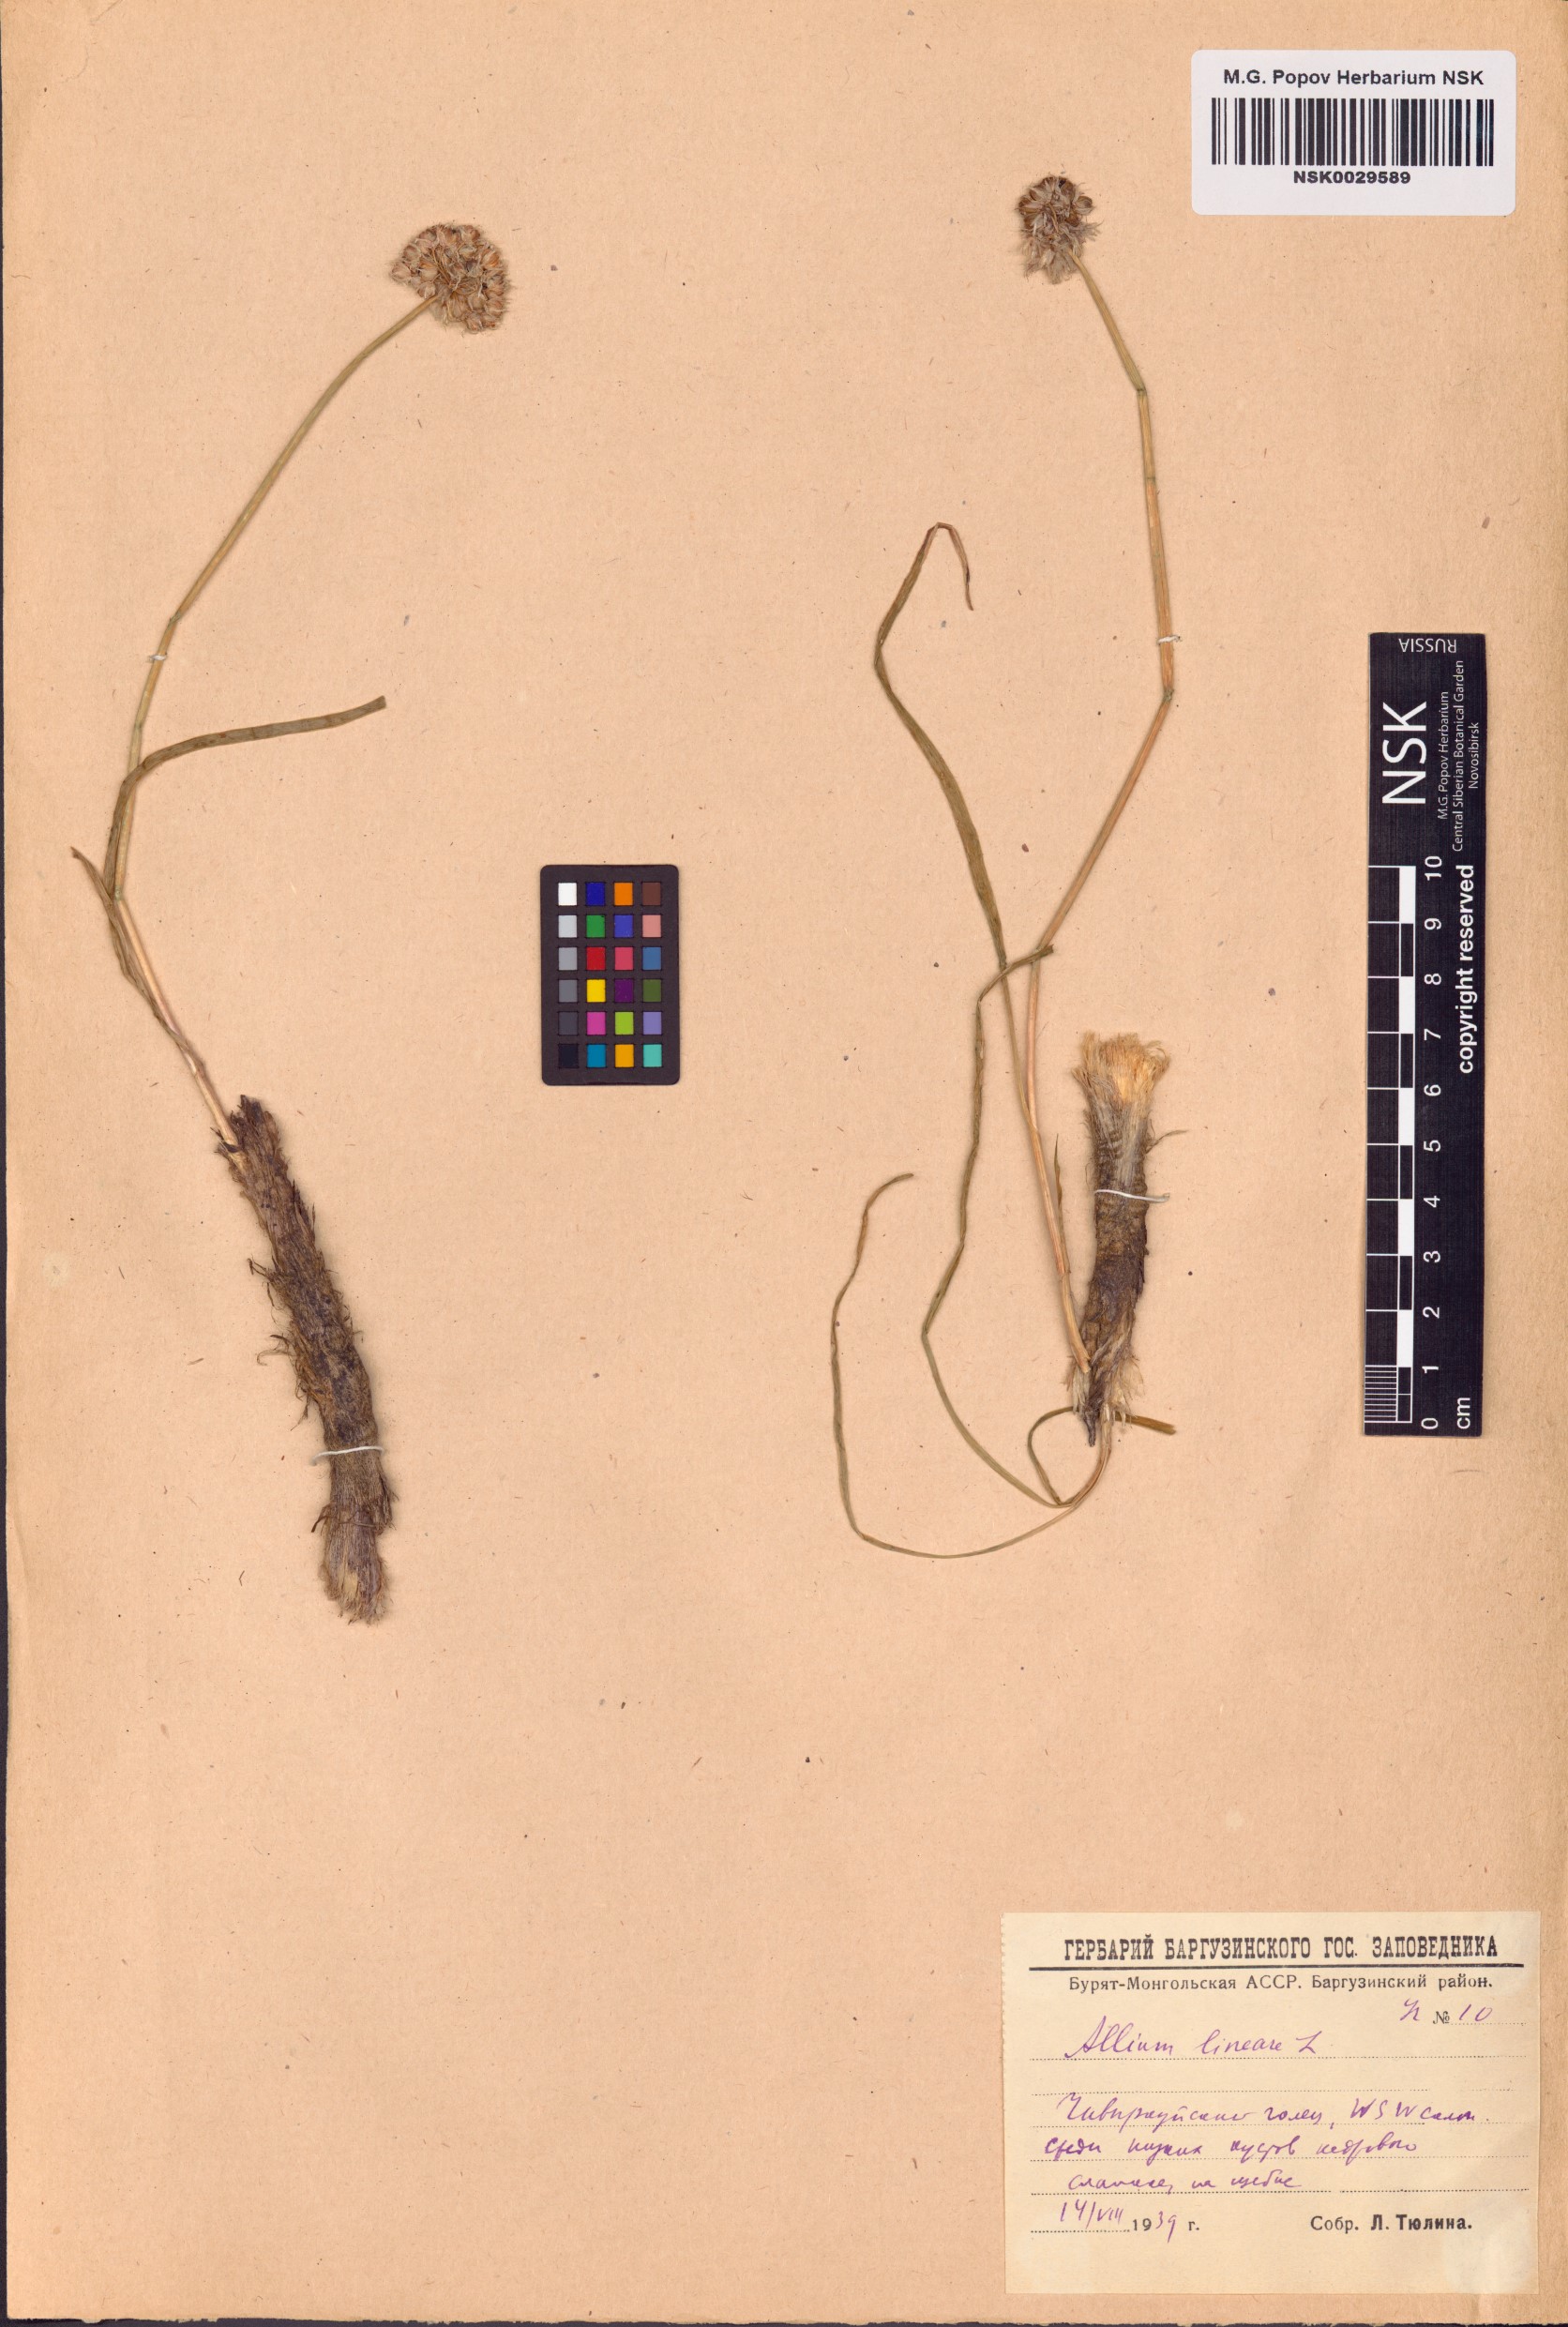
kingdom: Plantae
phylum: Tracheophyta
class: Liliopsida
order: Asparagales
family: Amaryllidaceae
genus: Allium
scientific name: Allium lineare
